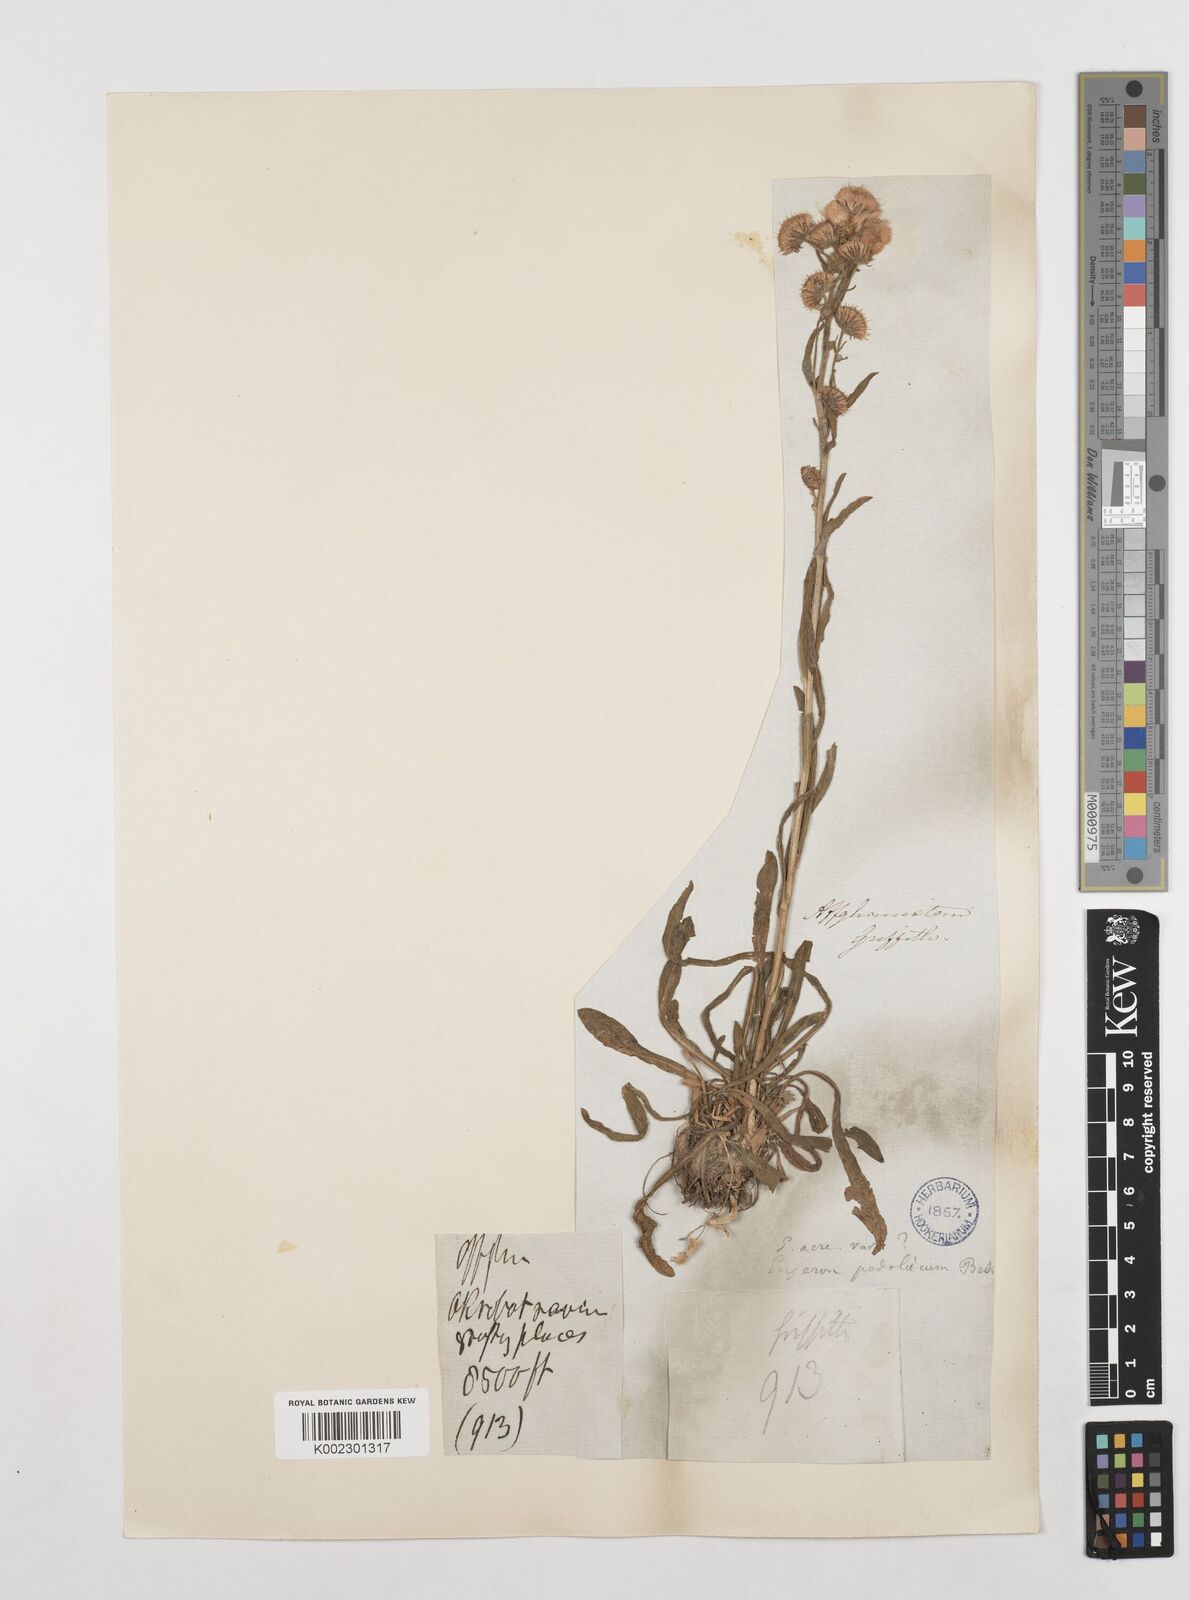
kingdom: Plantae
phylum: Tracheophyta
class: Magnoliopsida
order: Asterales
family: Asteraceae
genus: Erigeron
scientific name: Erigeron acris
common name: Blue fleabane
